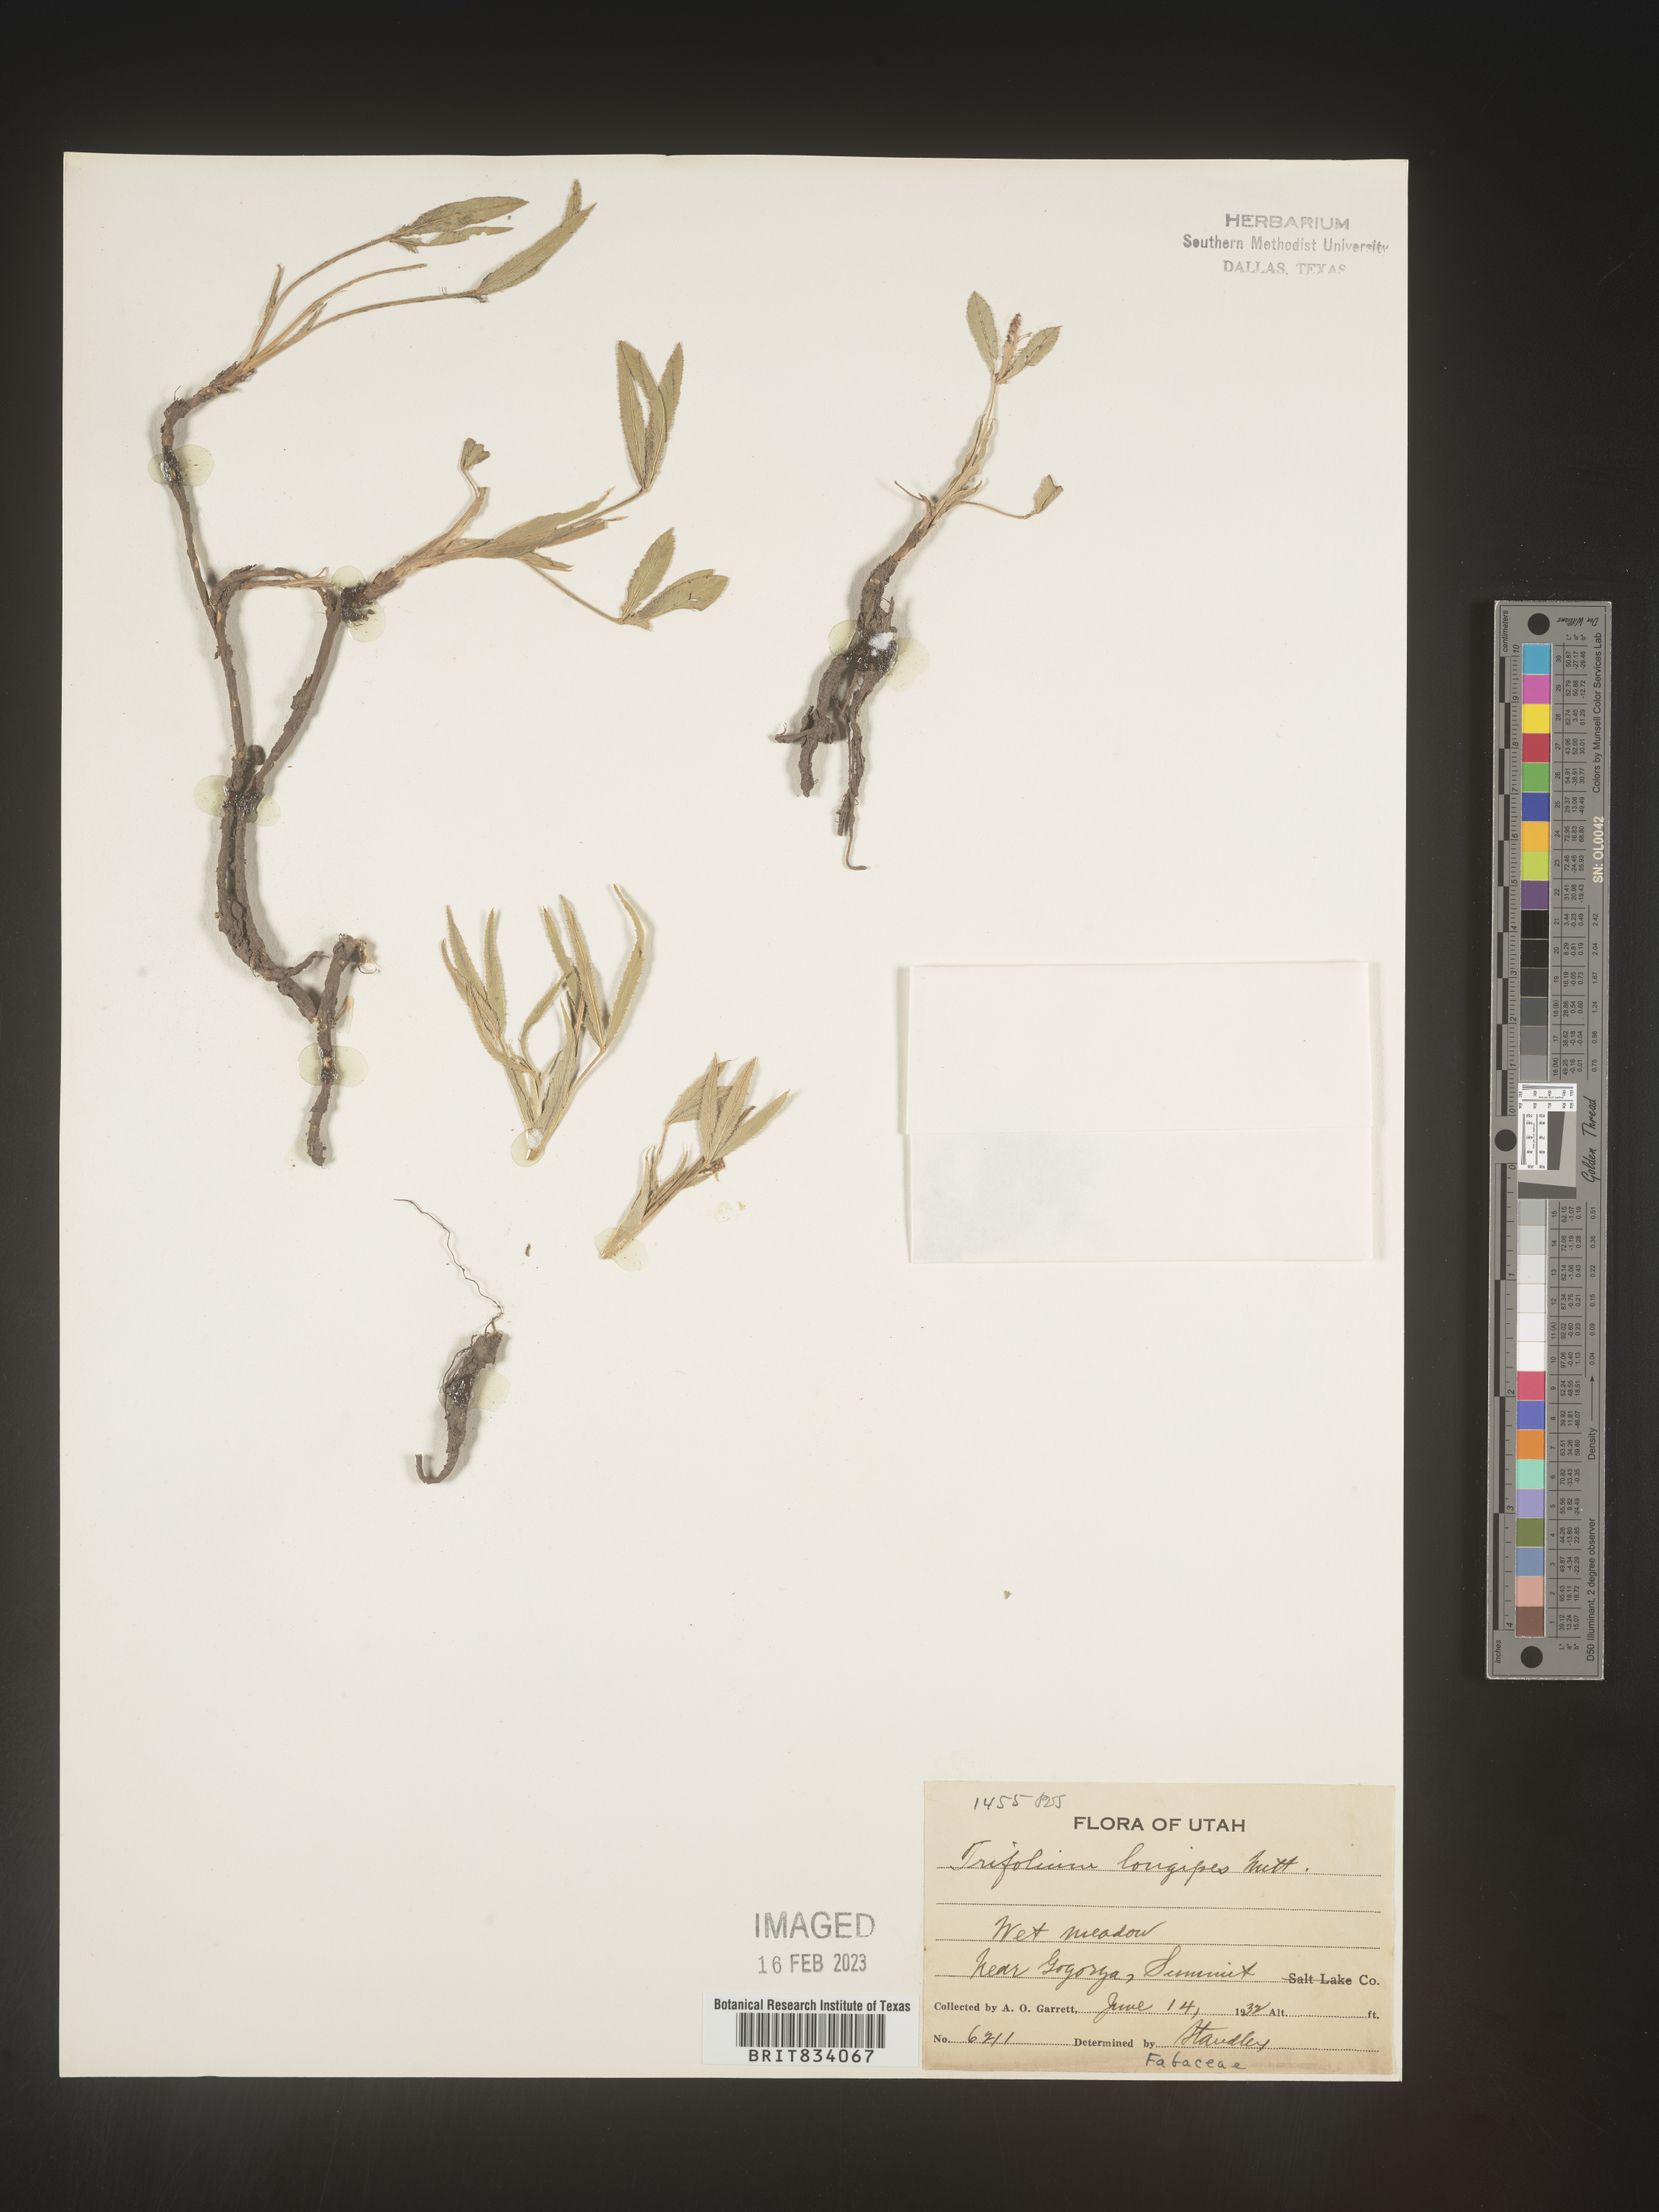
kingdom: Plantae
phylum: Tracheophyta
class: Magnoliopsida
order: Fabales
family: Fabaceae
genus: Trifolium
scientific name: Trifolium
